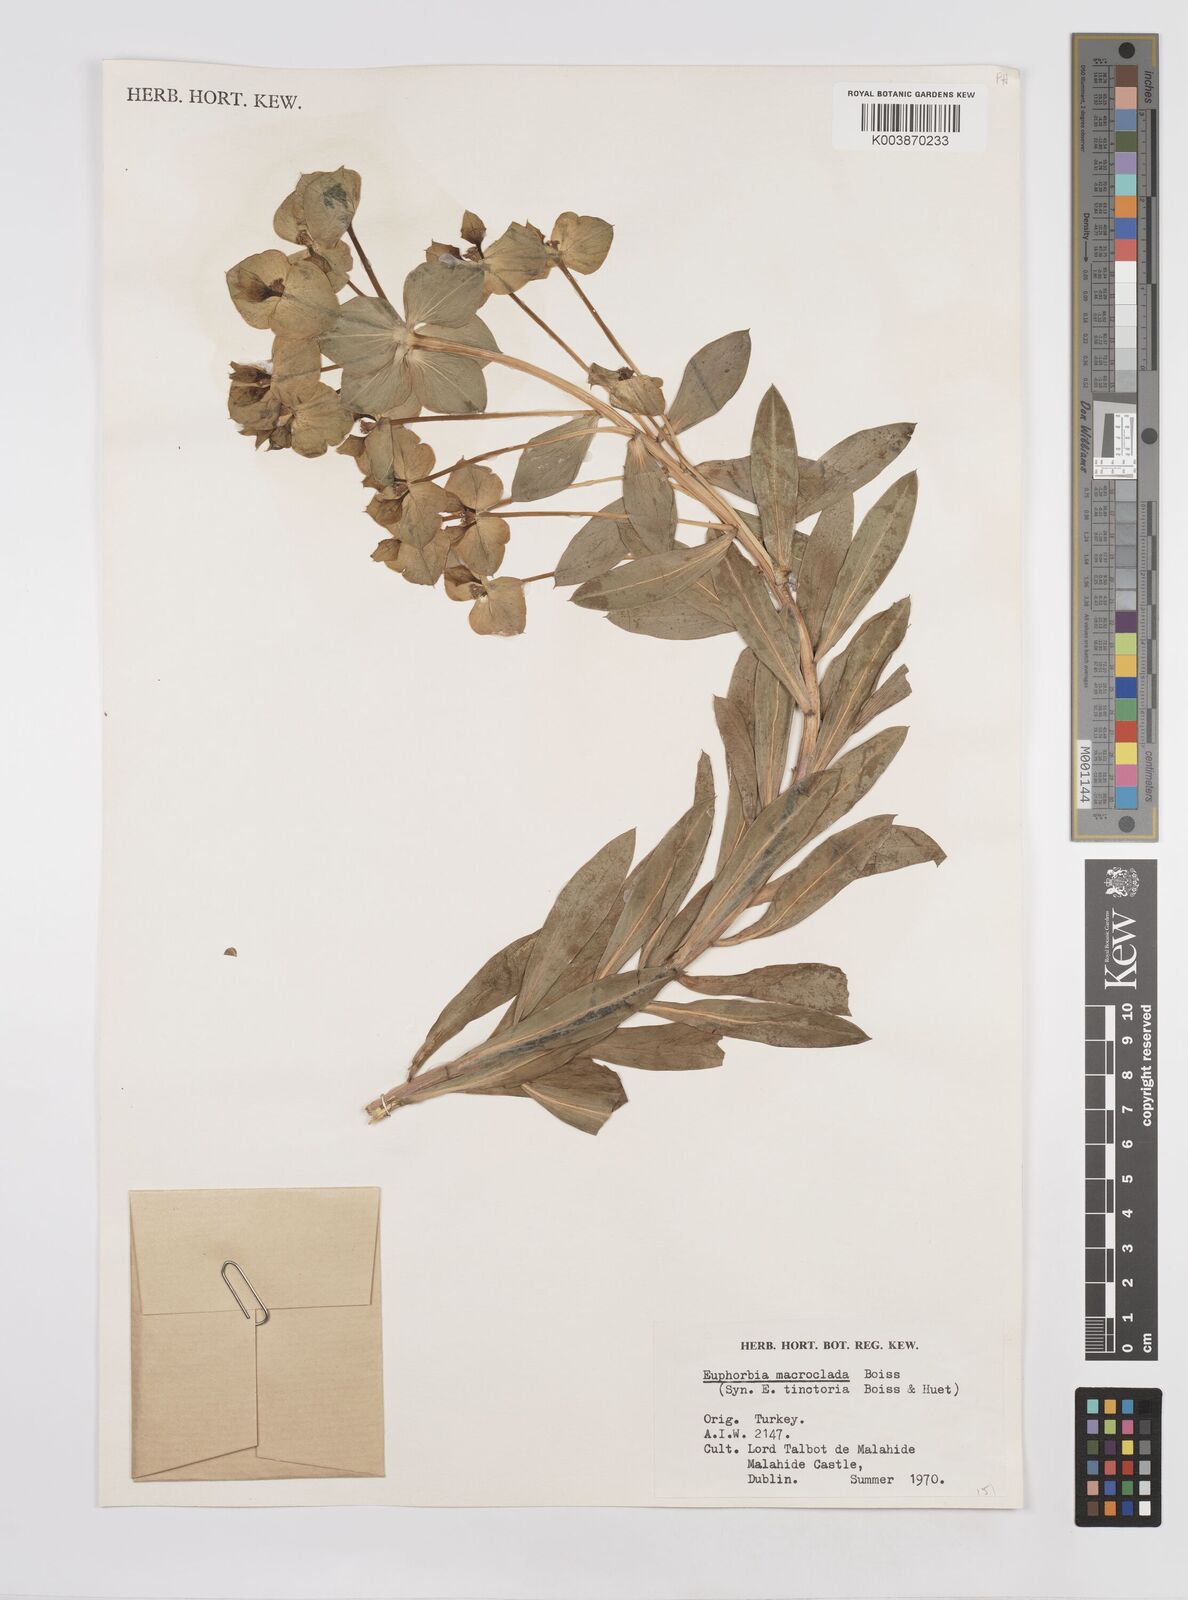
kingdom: Plantae
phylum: Tracheophyta
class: Magnoliopsida
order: Malpighiales
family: Euphorbiaceae
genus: Euphorbia
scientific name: Euphorbia macroclada
